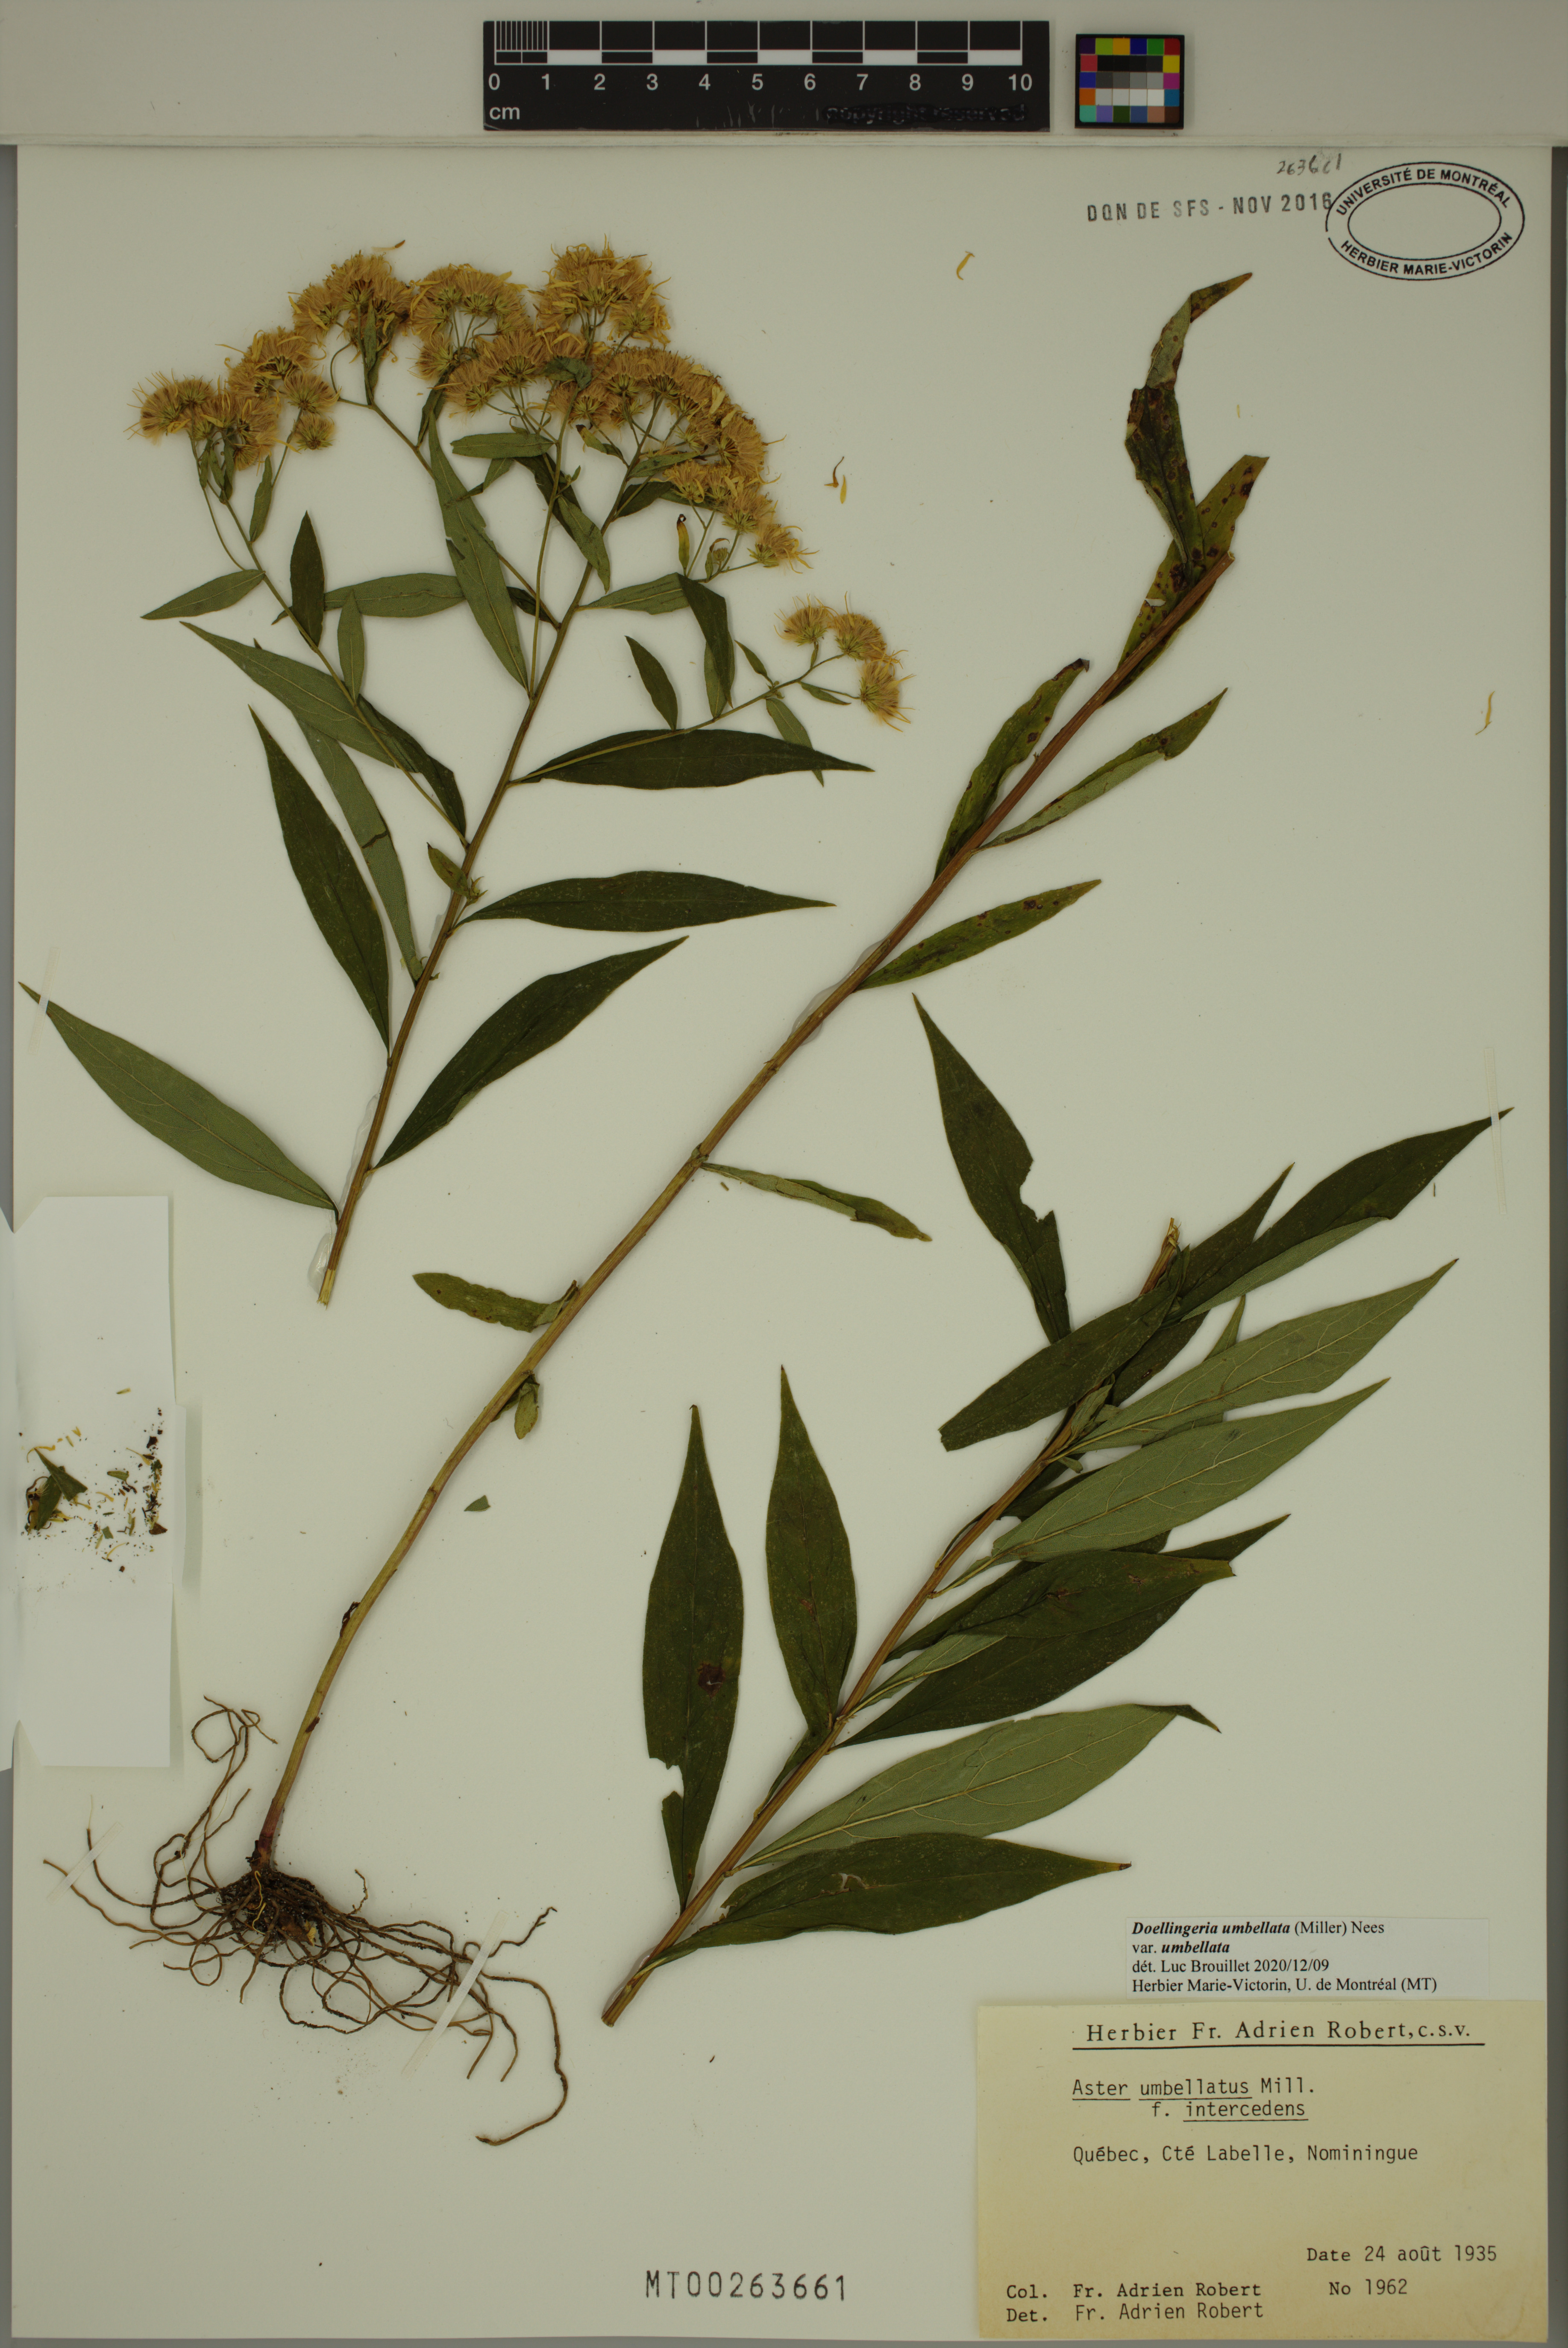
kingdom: Plantae
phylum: Tracheophyta
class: Magnoliopsida
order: Asterales
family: Asteraceae
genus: Doellingeria
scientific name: Doellingeria umbellata
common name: Flat-top white aster
